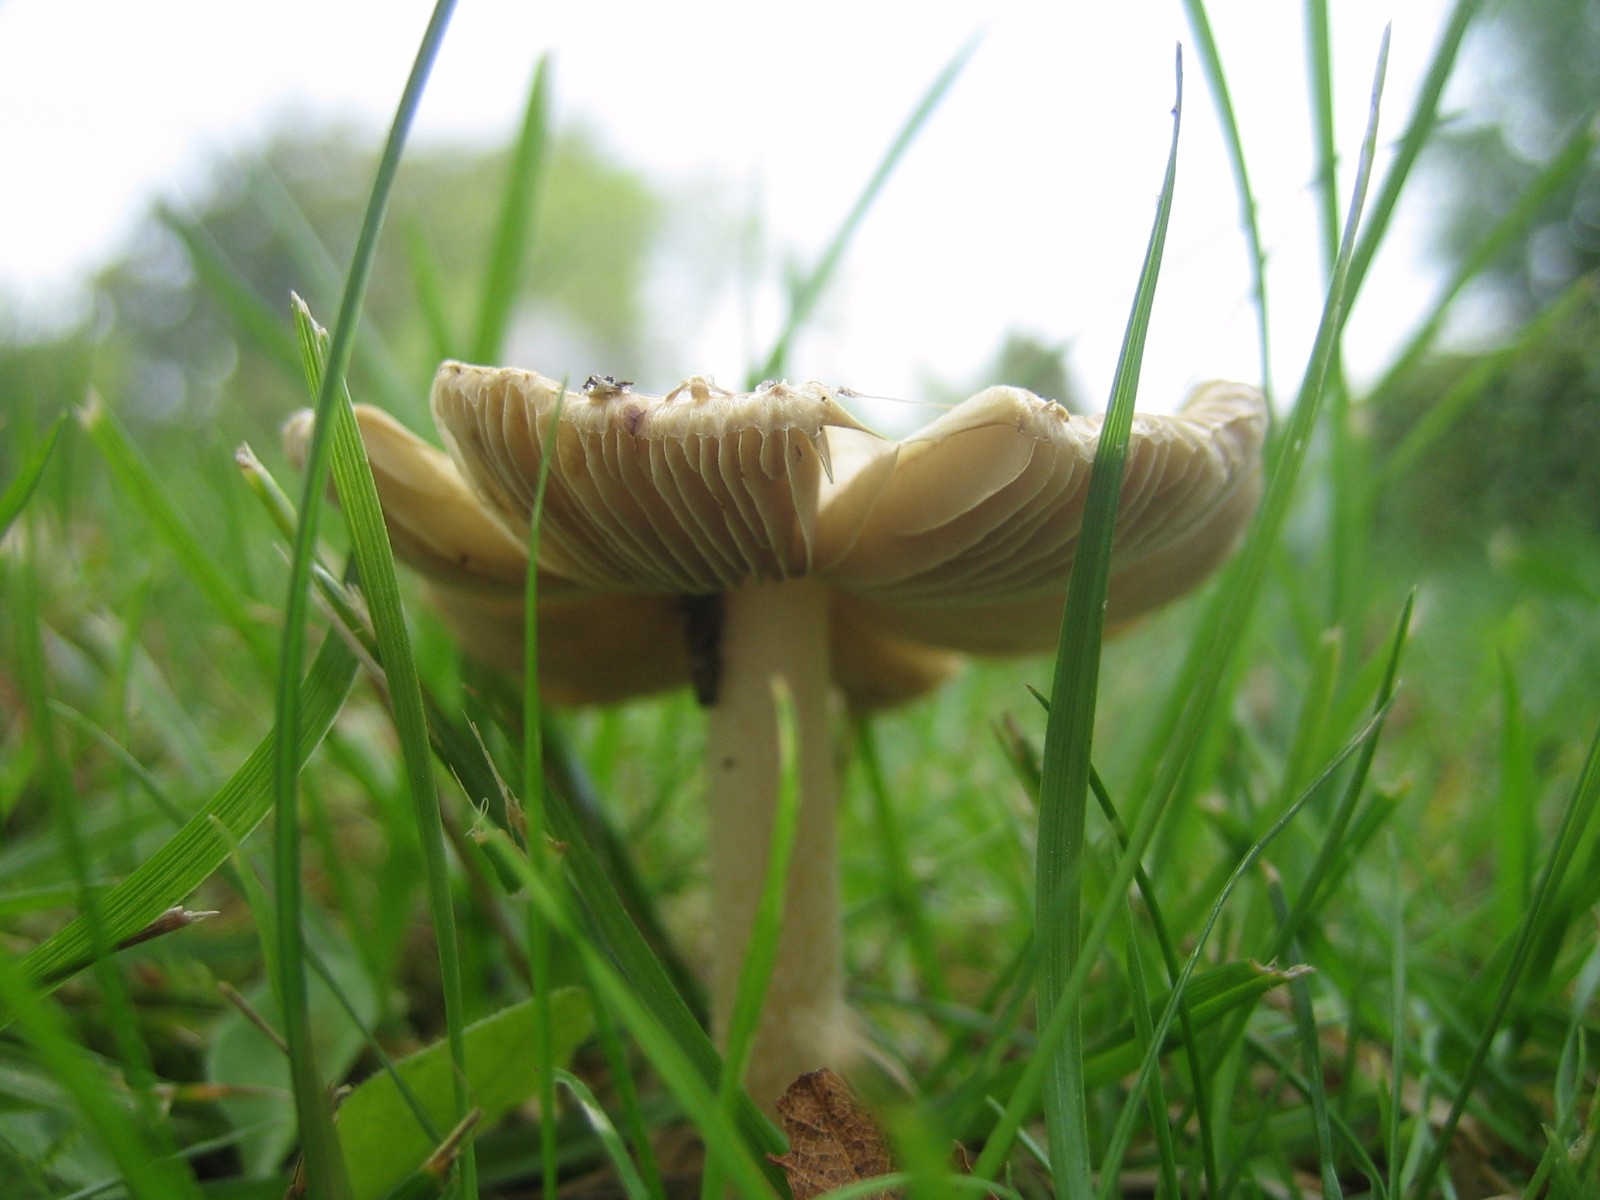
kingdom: Fungi
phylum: Basidiomycota
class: Agaricomycetes
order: Agaricales
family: Inocybaceae
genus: Inocybe
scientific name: Inocybe
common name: trævlhat
